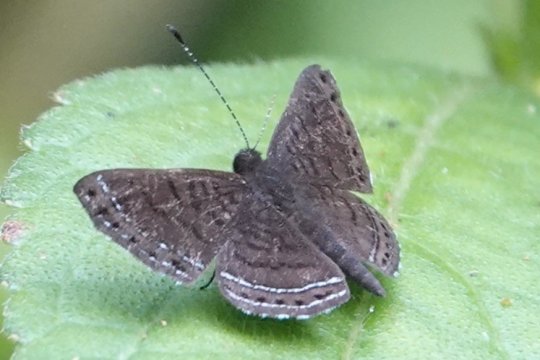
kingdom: Animalia
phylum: Arthropoda
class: Insecta
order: Lepidoptera
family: Riodinidae
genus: Detritivora
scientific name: Detritivora
